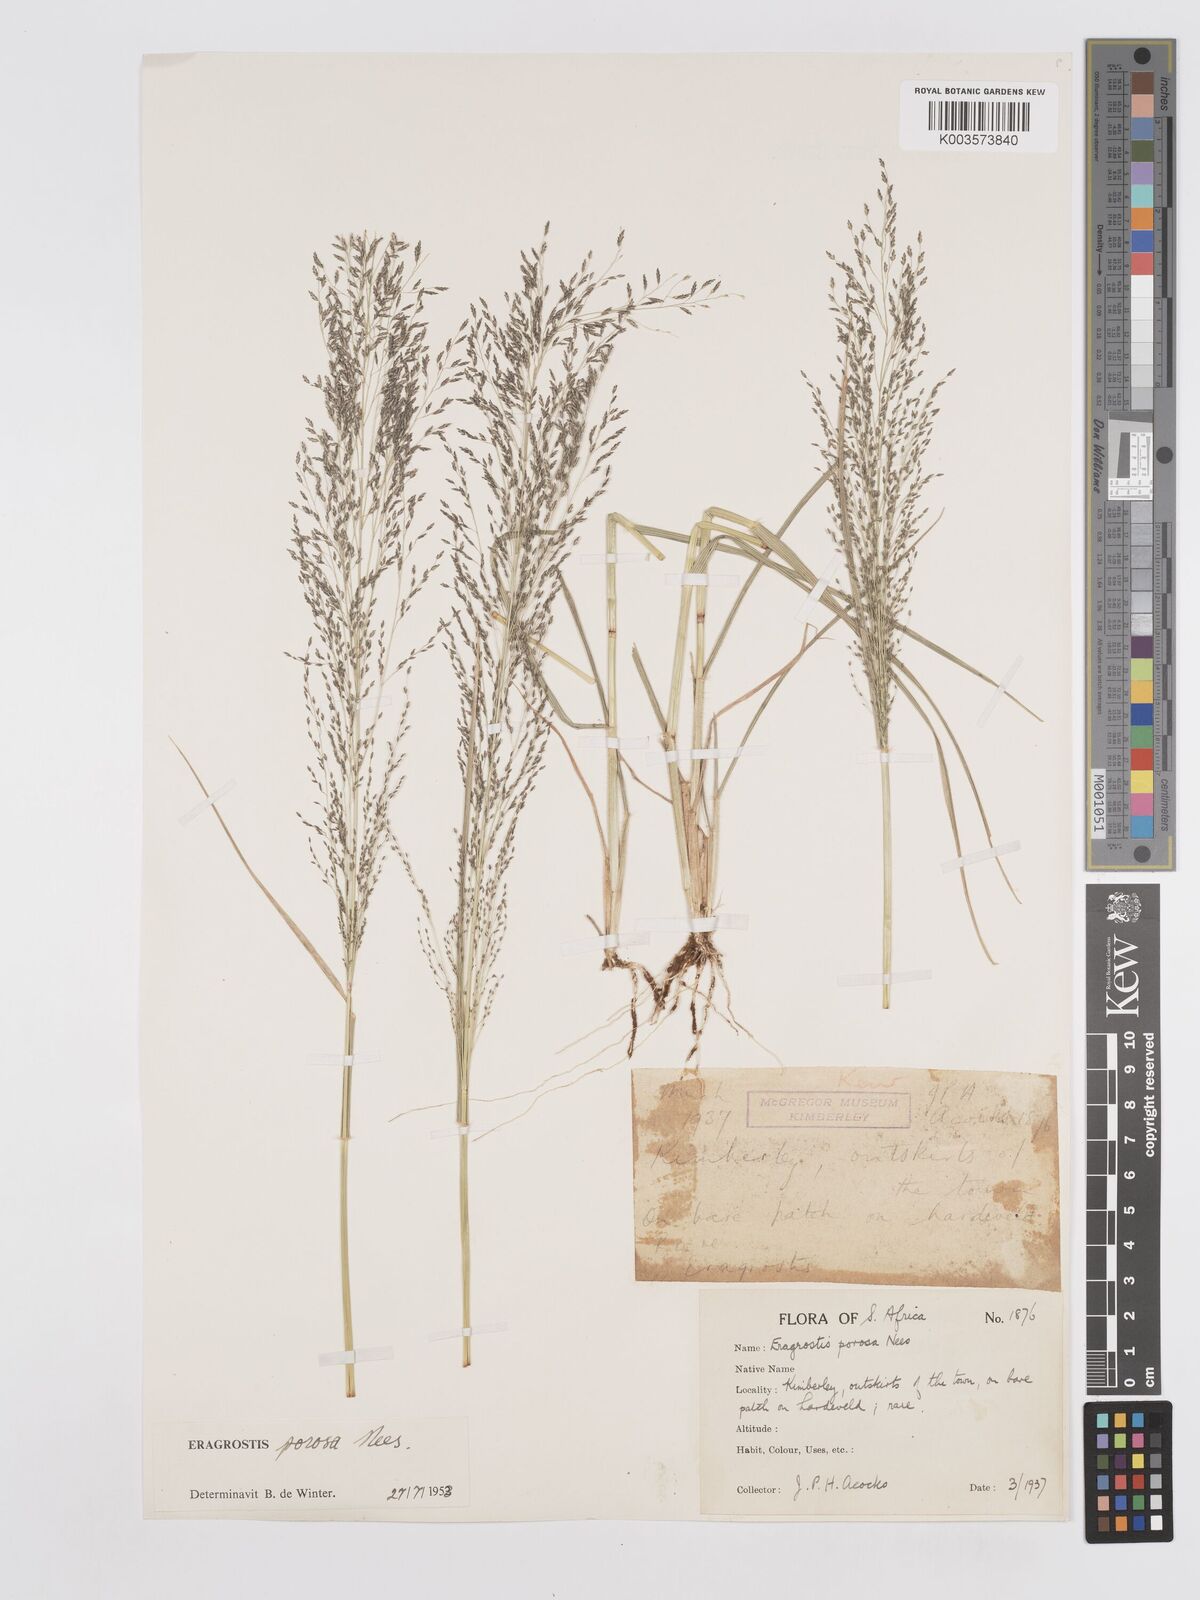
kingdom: Plantae
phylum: Tracheophyta
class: Liliopsida
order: Poales
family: Poaceae
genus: Eragrostis
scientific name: Eragrostis porosa
